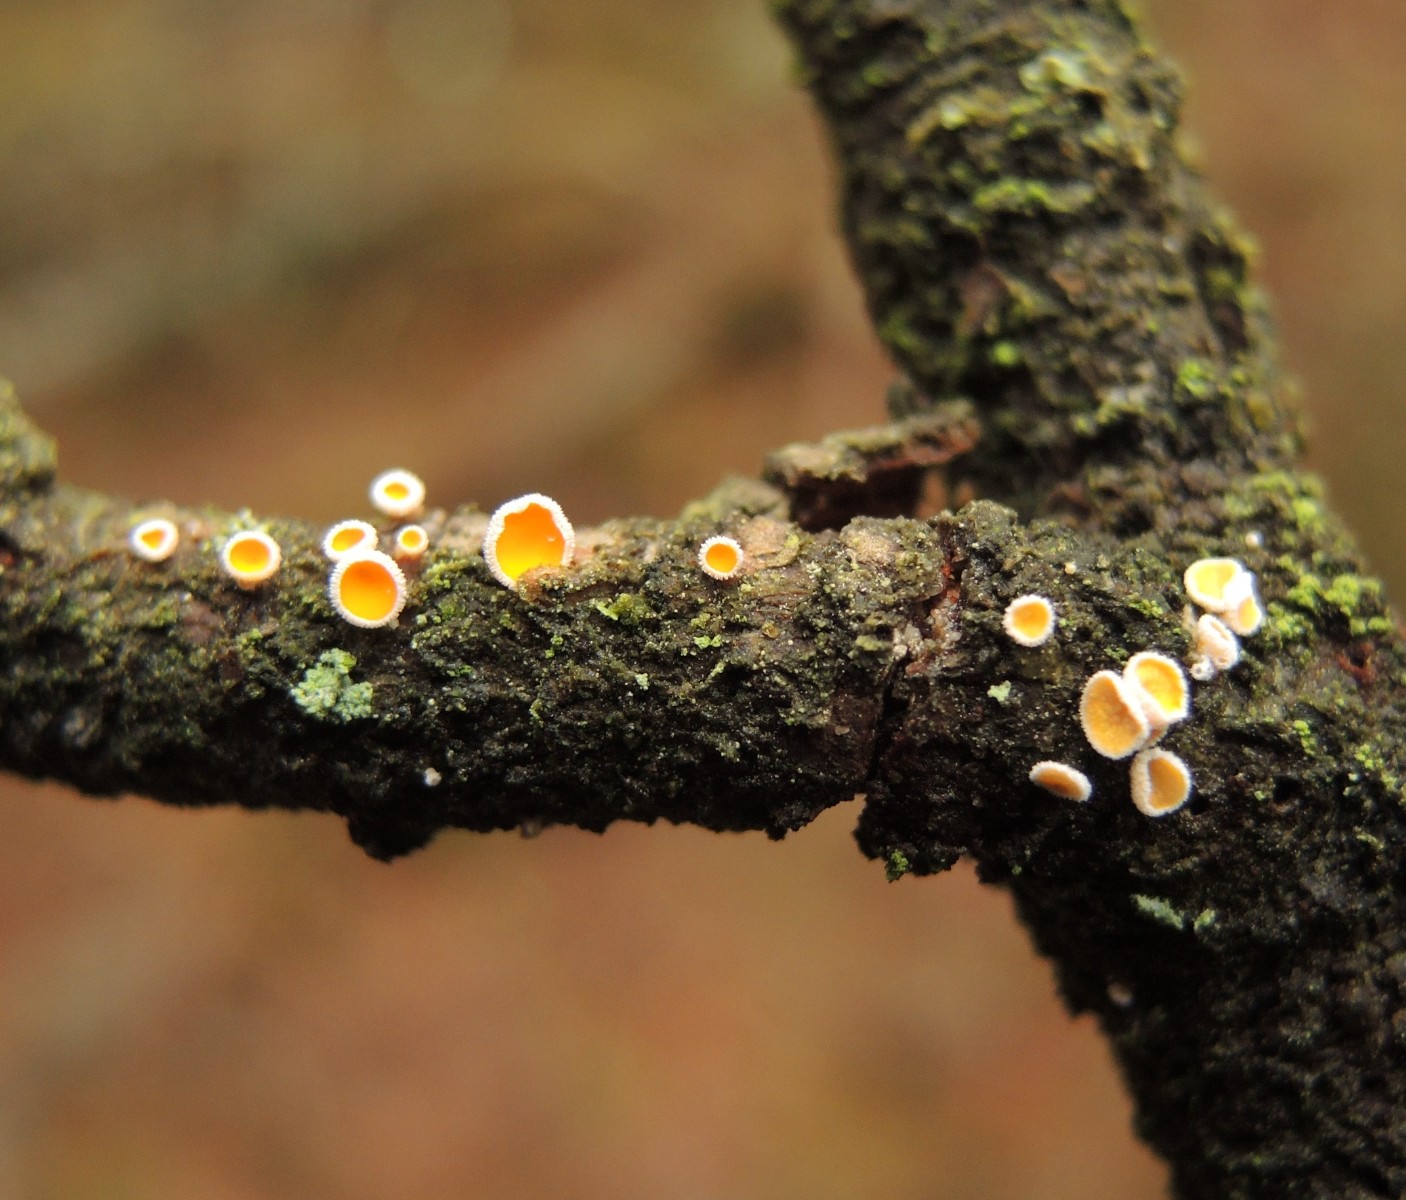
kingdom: Fungi
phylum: Ascomycota
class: Leotiomycetes
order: Helotiales
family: Lachnaceae
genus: Lachnellula
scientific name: Lachnellula pseudofarinacea
